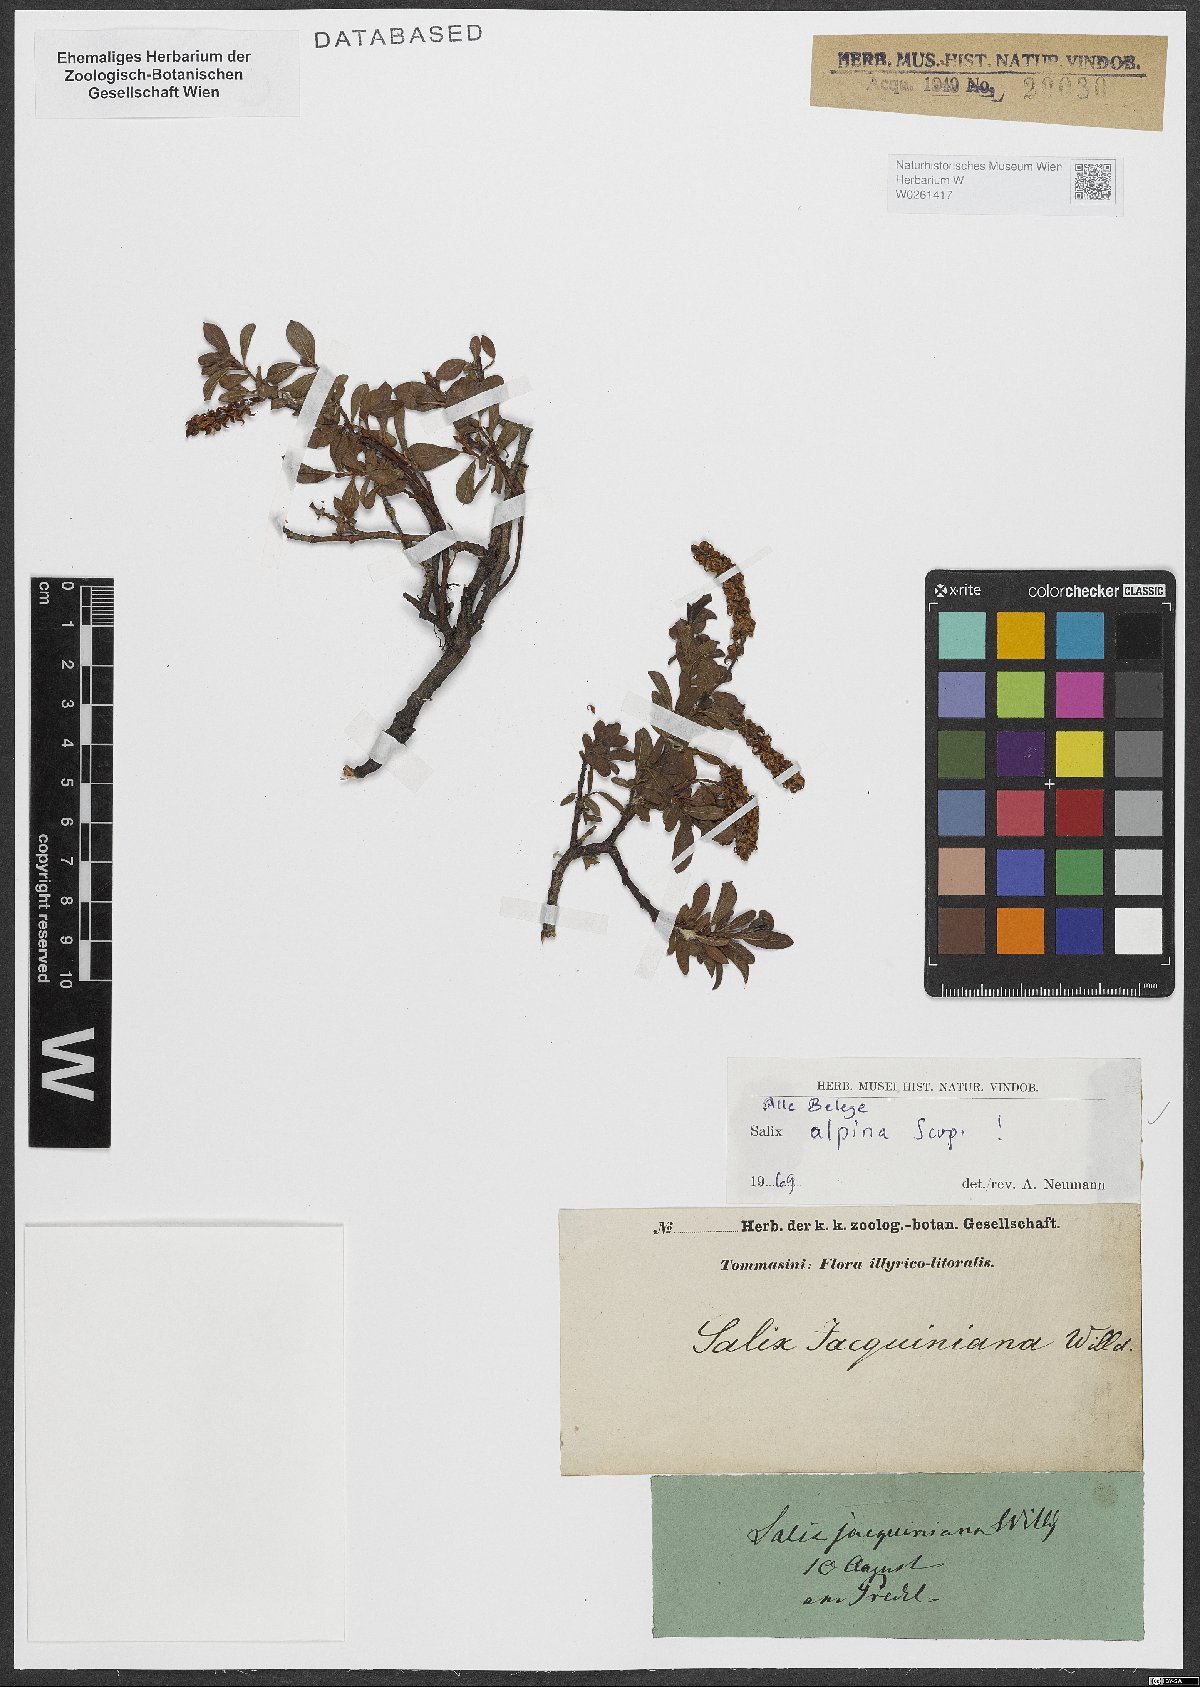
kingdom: Plantae
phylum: Tracheophyta
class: Magnoliopsida
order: Malpighiales
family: Salicaceae
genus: Salix
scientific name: Salix alpina
